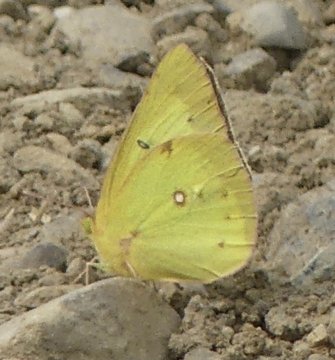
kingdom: Animalia
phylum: Arthropoda
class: Insecta
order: Lepidoptera
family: Pieridae
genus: Colias
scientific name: Colias philodice
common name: Clouded Sulphur
